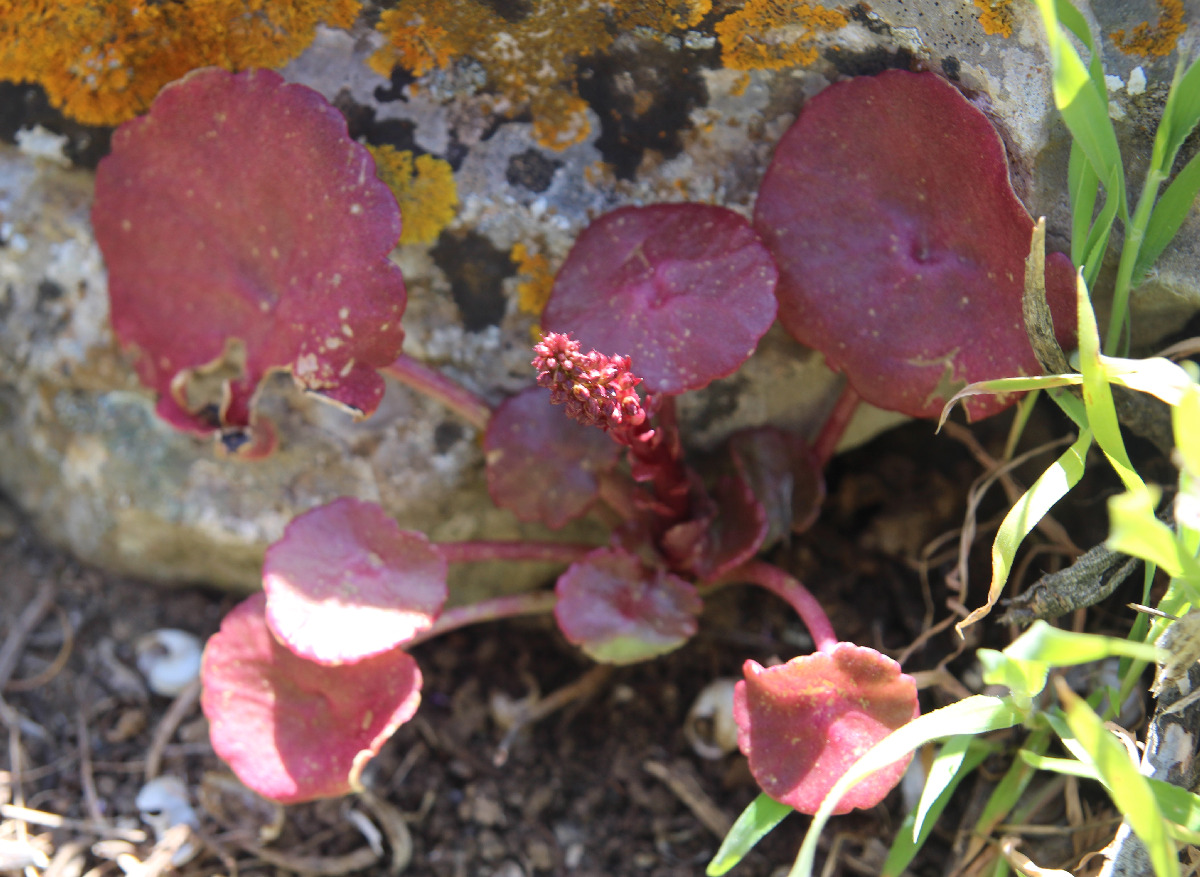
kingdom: Plantae
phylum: Tracheophyta
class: Magnoliopsida
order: Saxifragales
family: Crassulaceae
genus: Umbilicus
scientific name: Umbilicus horizontalis
